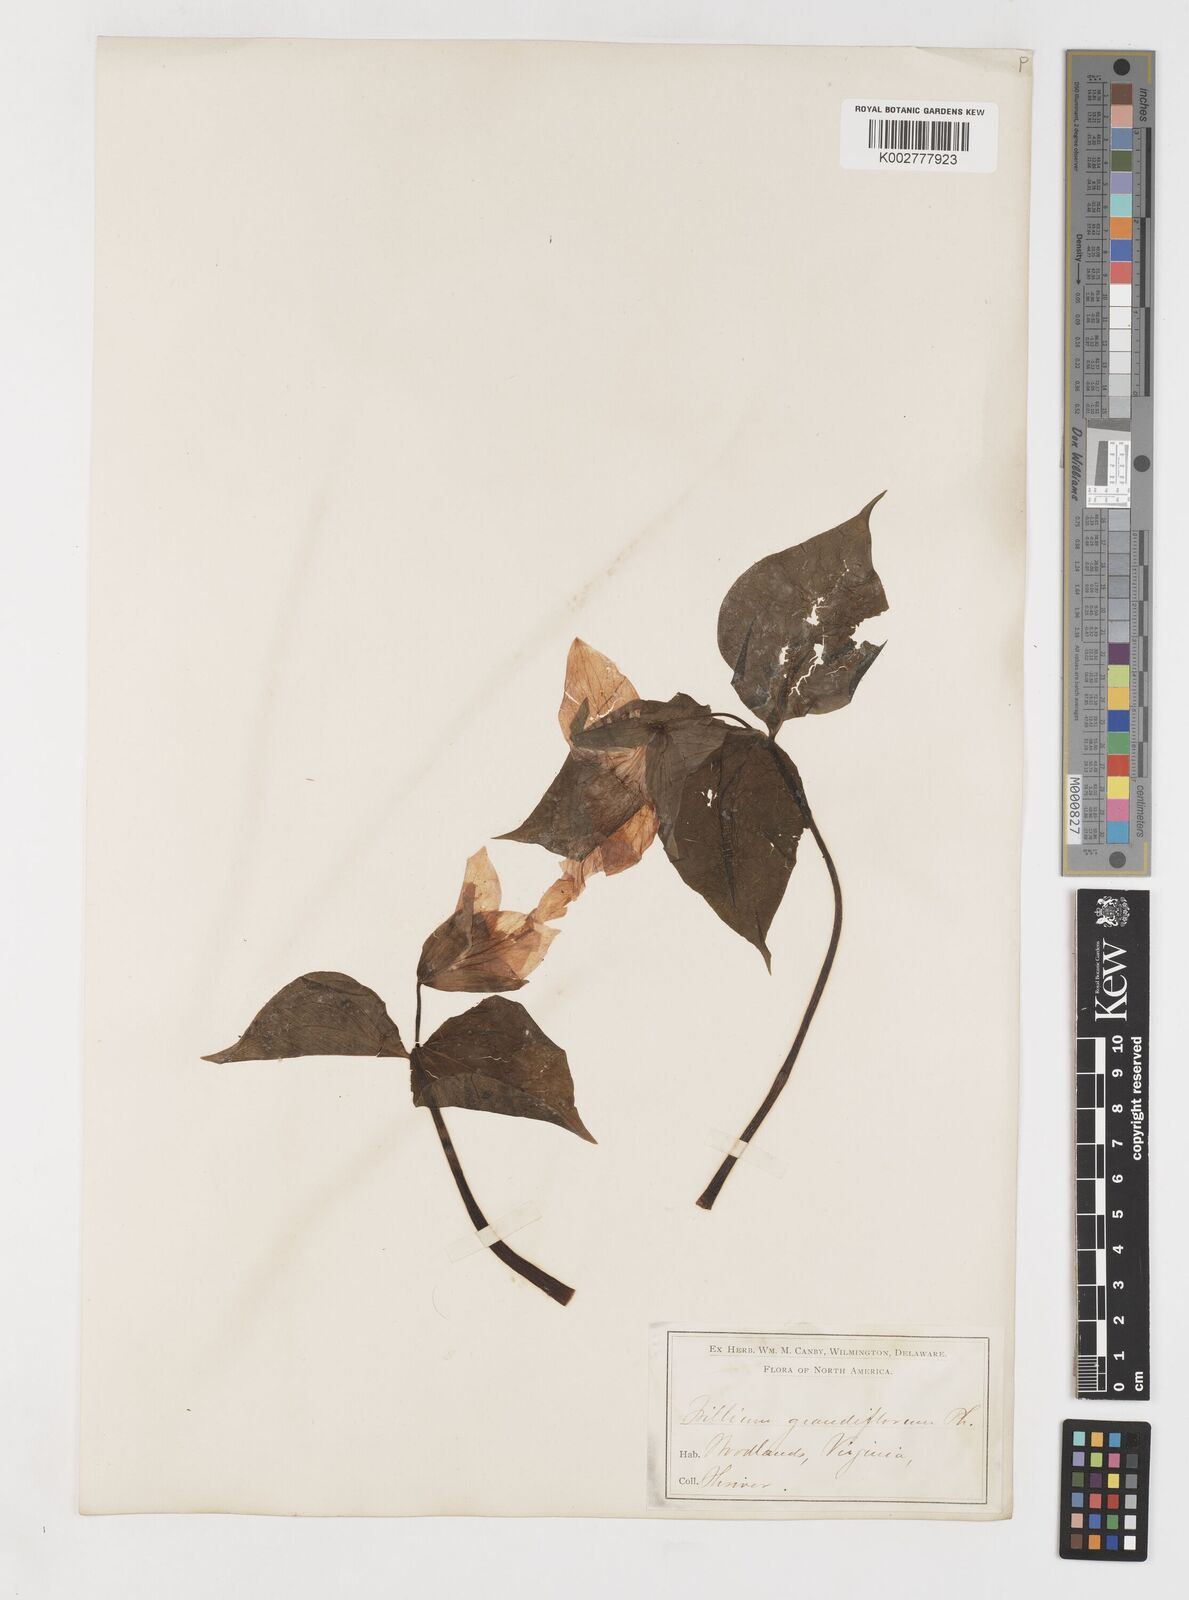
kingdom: Plantae
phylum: Tracheophyta
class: Liliopsida
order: Liliales
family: Melanthiaceae
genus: Trillium
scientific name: Trillium grandiflorum
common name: Great white trillium
